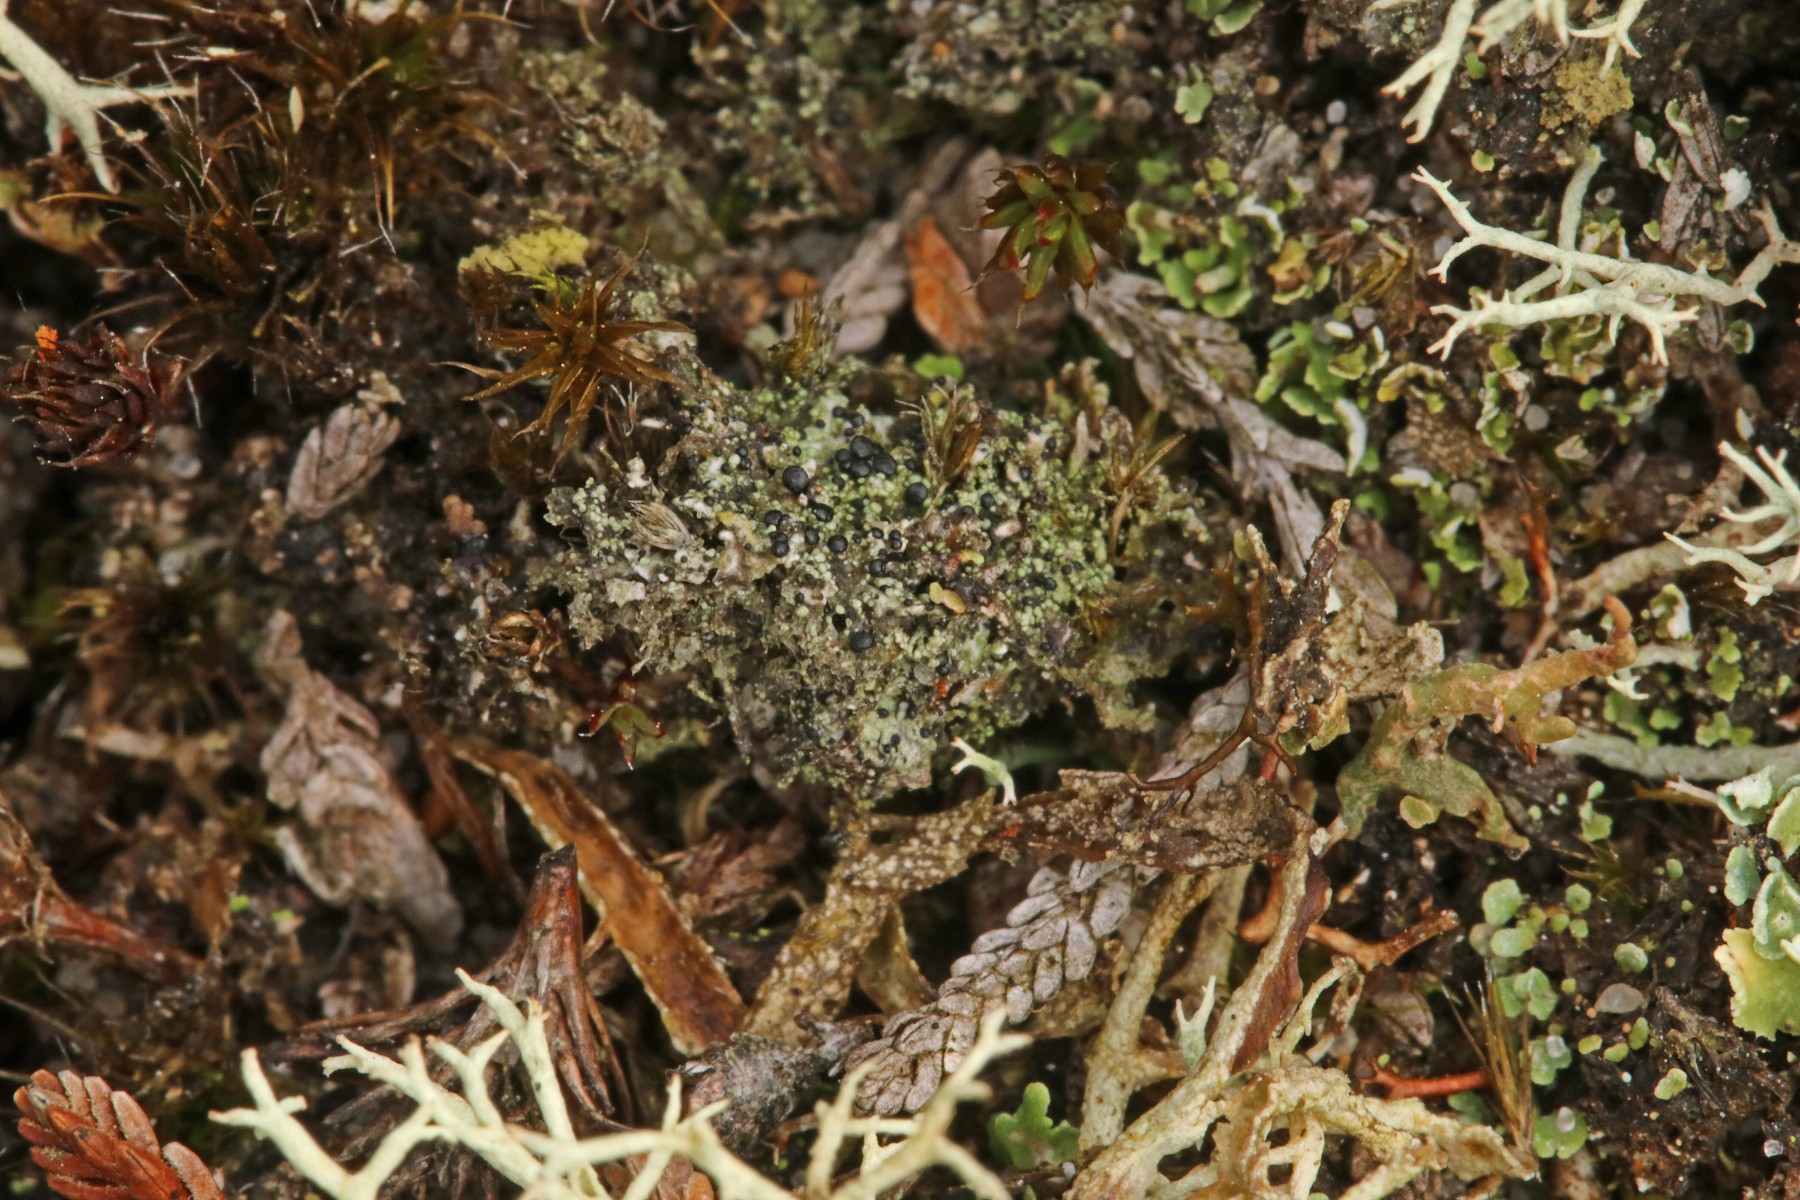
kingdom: Fungi
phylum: Ascomycota
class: Lecanoromycetes
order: Lecanorales
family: Byssolomataceae
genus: Micarea
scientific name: Micarea lignaria
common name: tørve-knaplav
